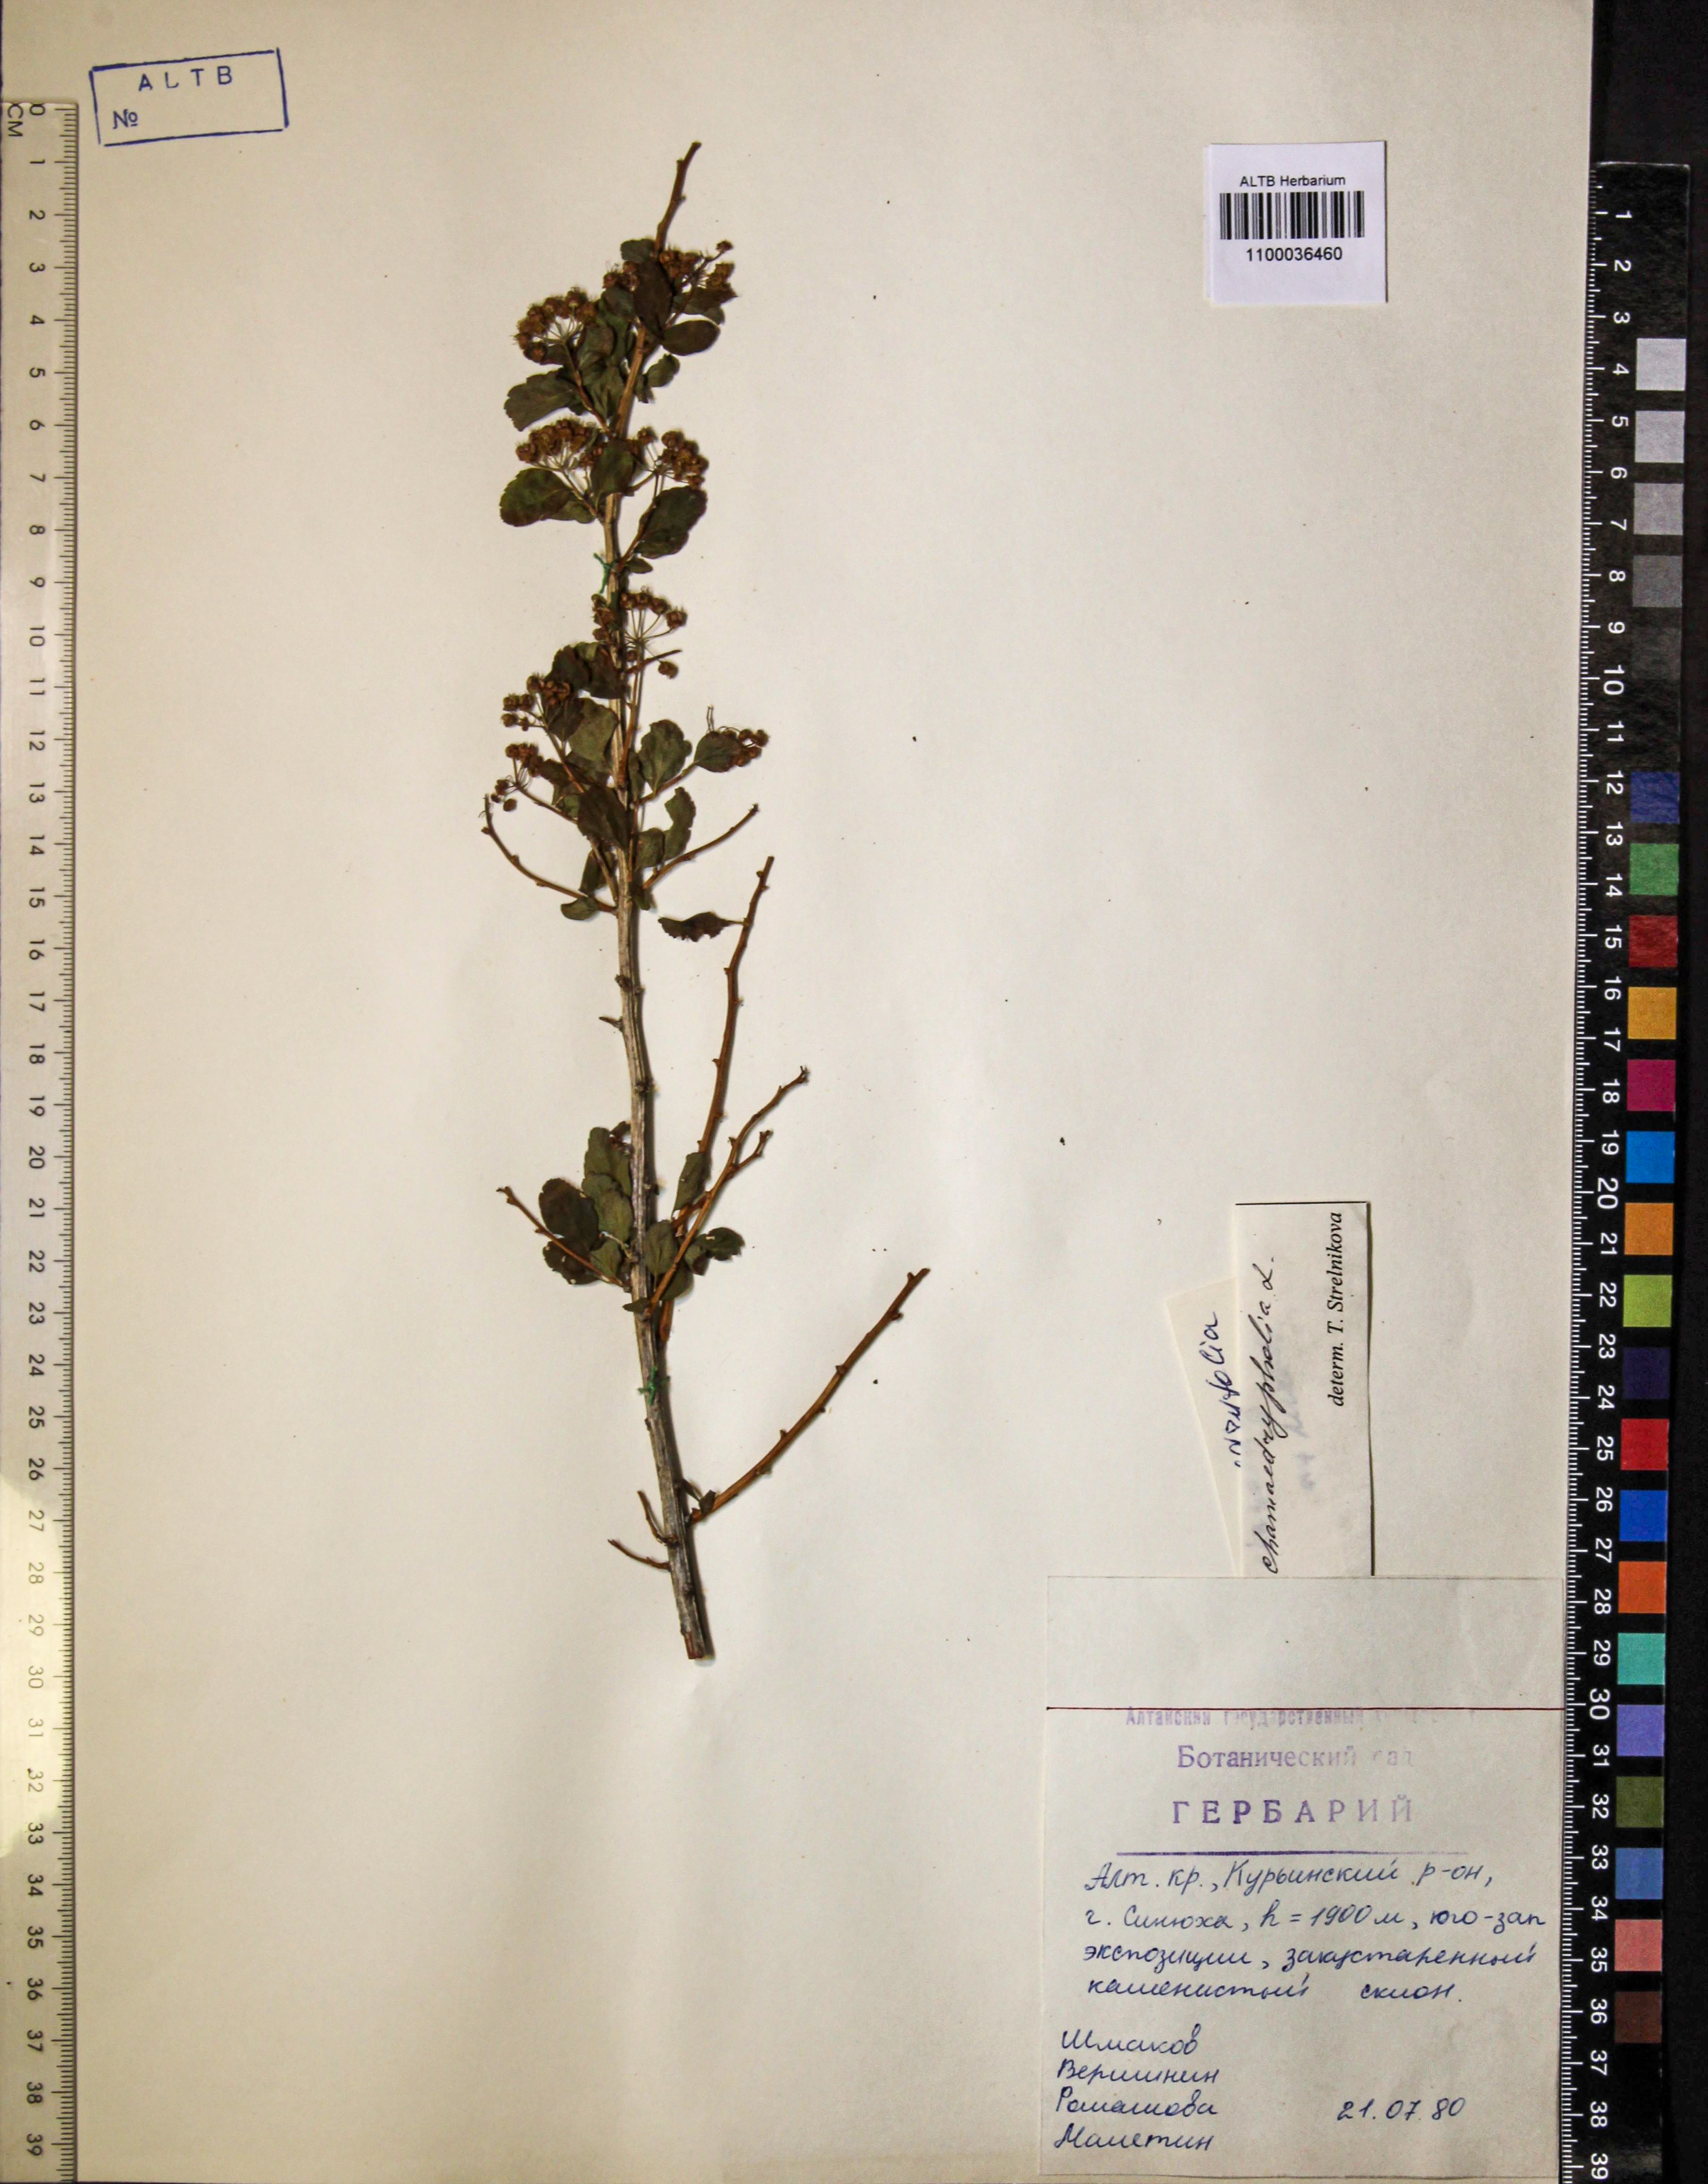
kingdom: Plantae
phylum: Tracheophyta
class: Magnoliopsida
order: Rosales
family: Rosaceae
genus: Spiraea
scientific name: Spiraea chamaedryfolia
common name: Elm-leaved spiraea
